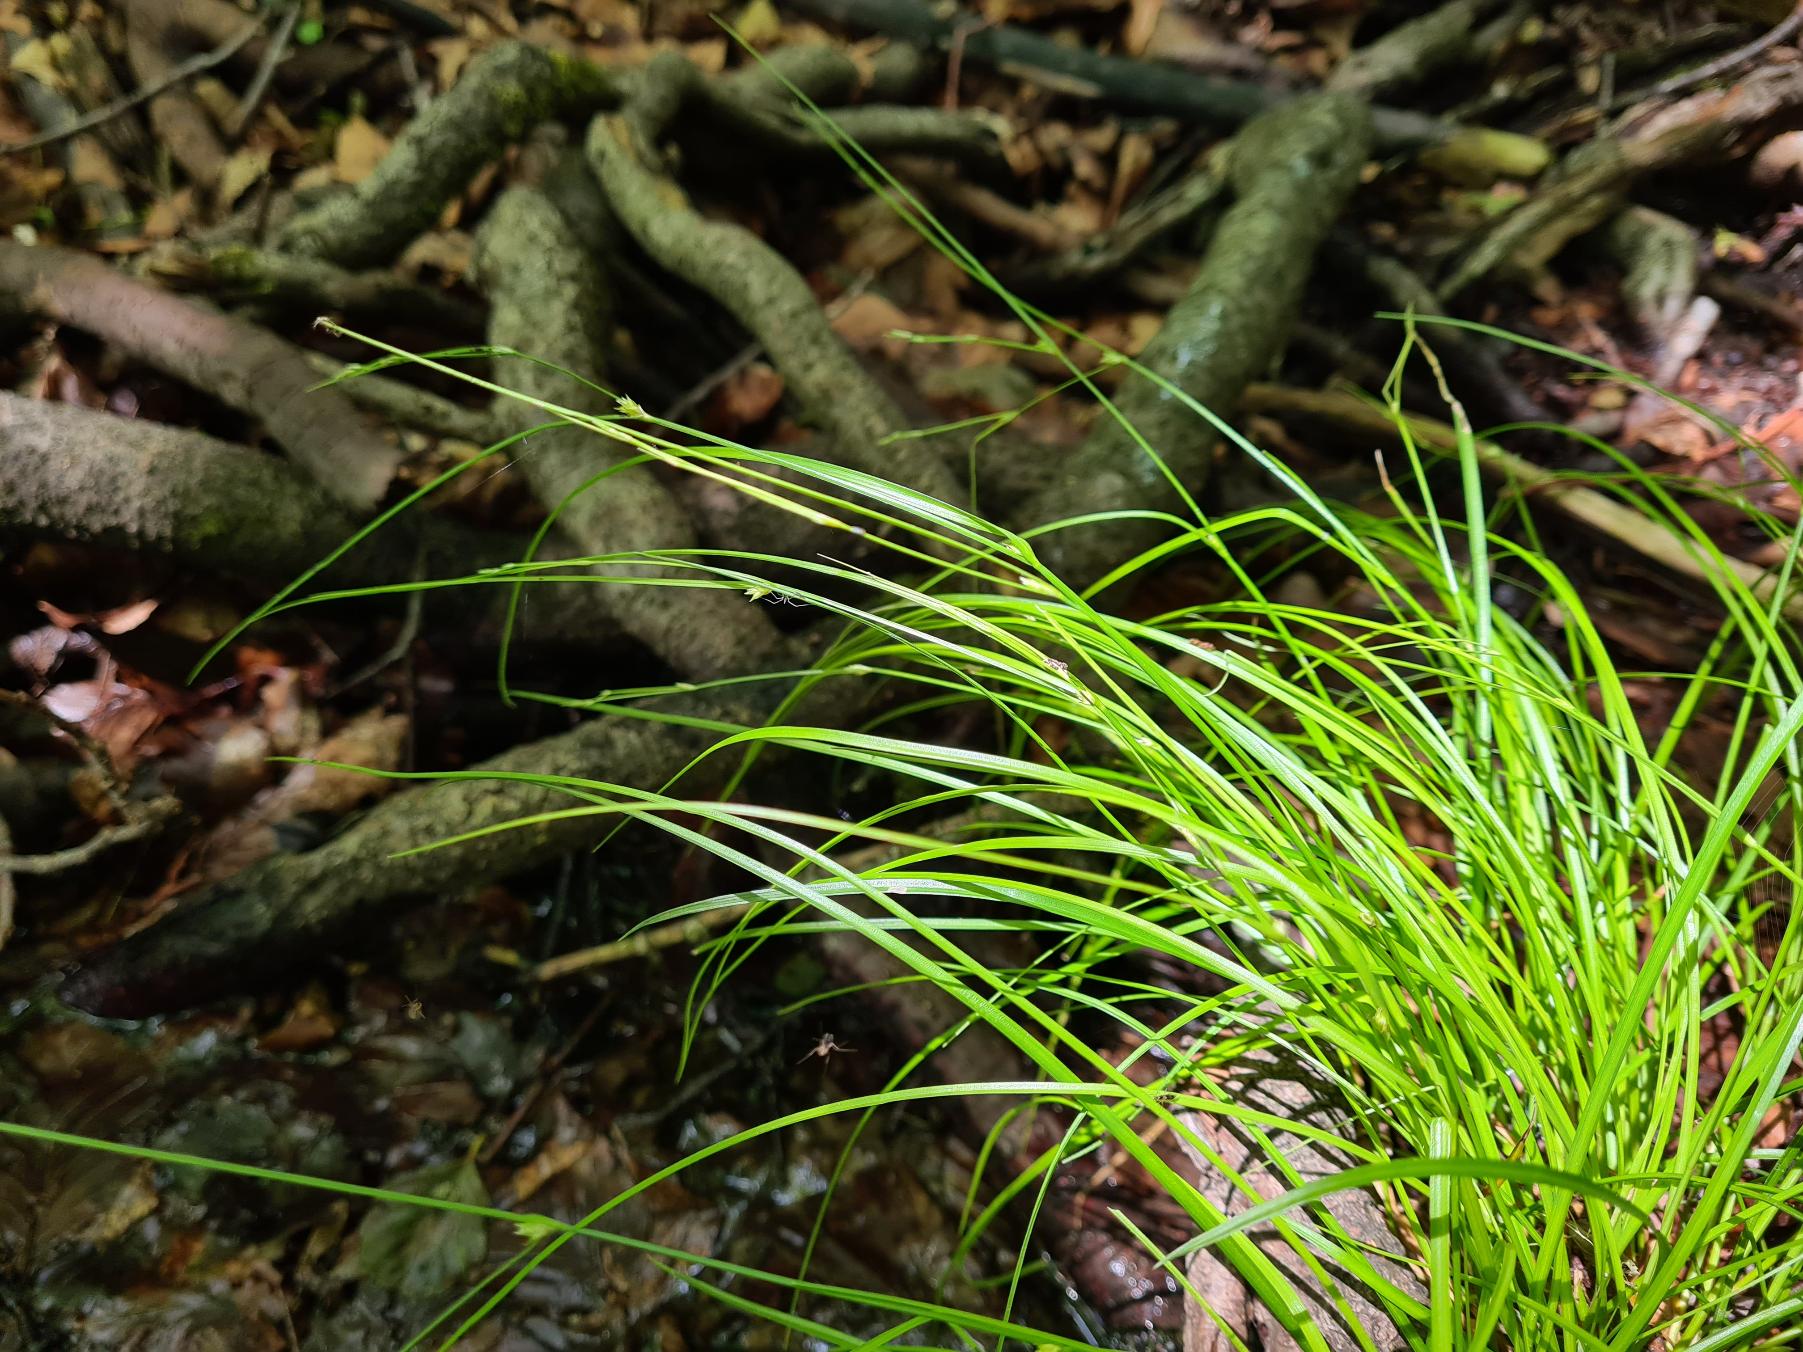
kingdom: Plantae
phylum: Tracheophyta
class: Liliopsida
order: Poales
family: Cyperaceae
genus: Carex
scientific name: Carex remota
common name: Akselblomstret star
